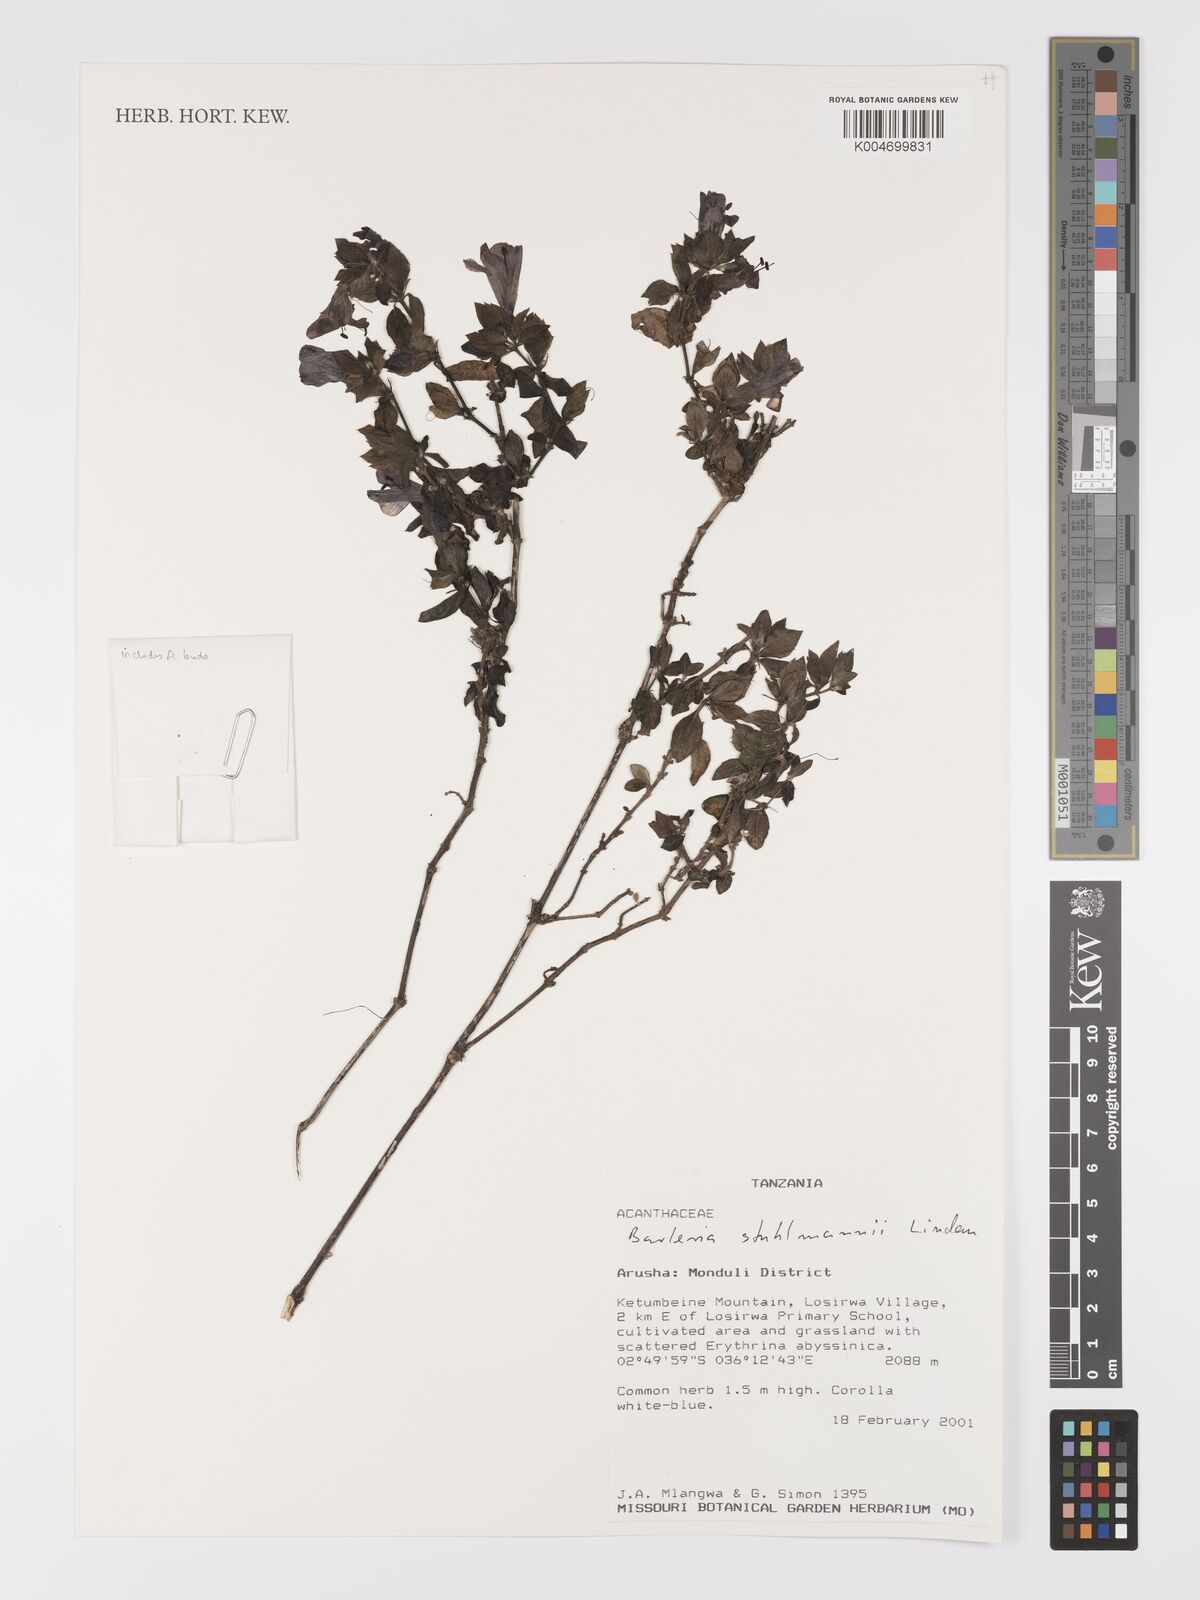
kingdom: Plantae
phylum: Tracheophyta
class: Magnoliopsida
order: Lamiales
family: Acanthaceae
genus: Barleria
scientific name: Barleria ventricosa
